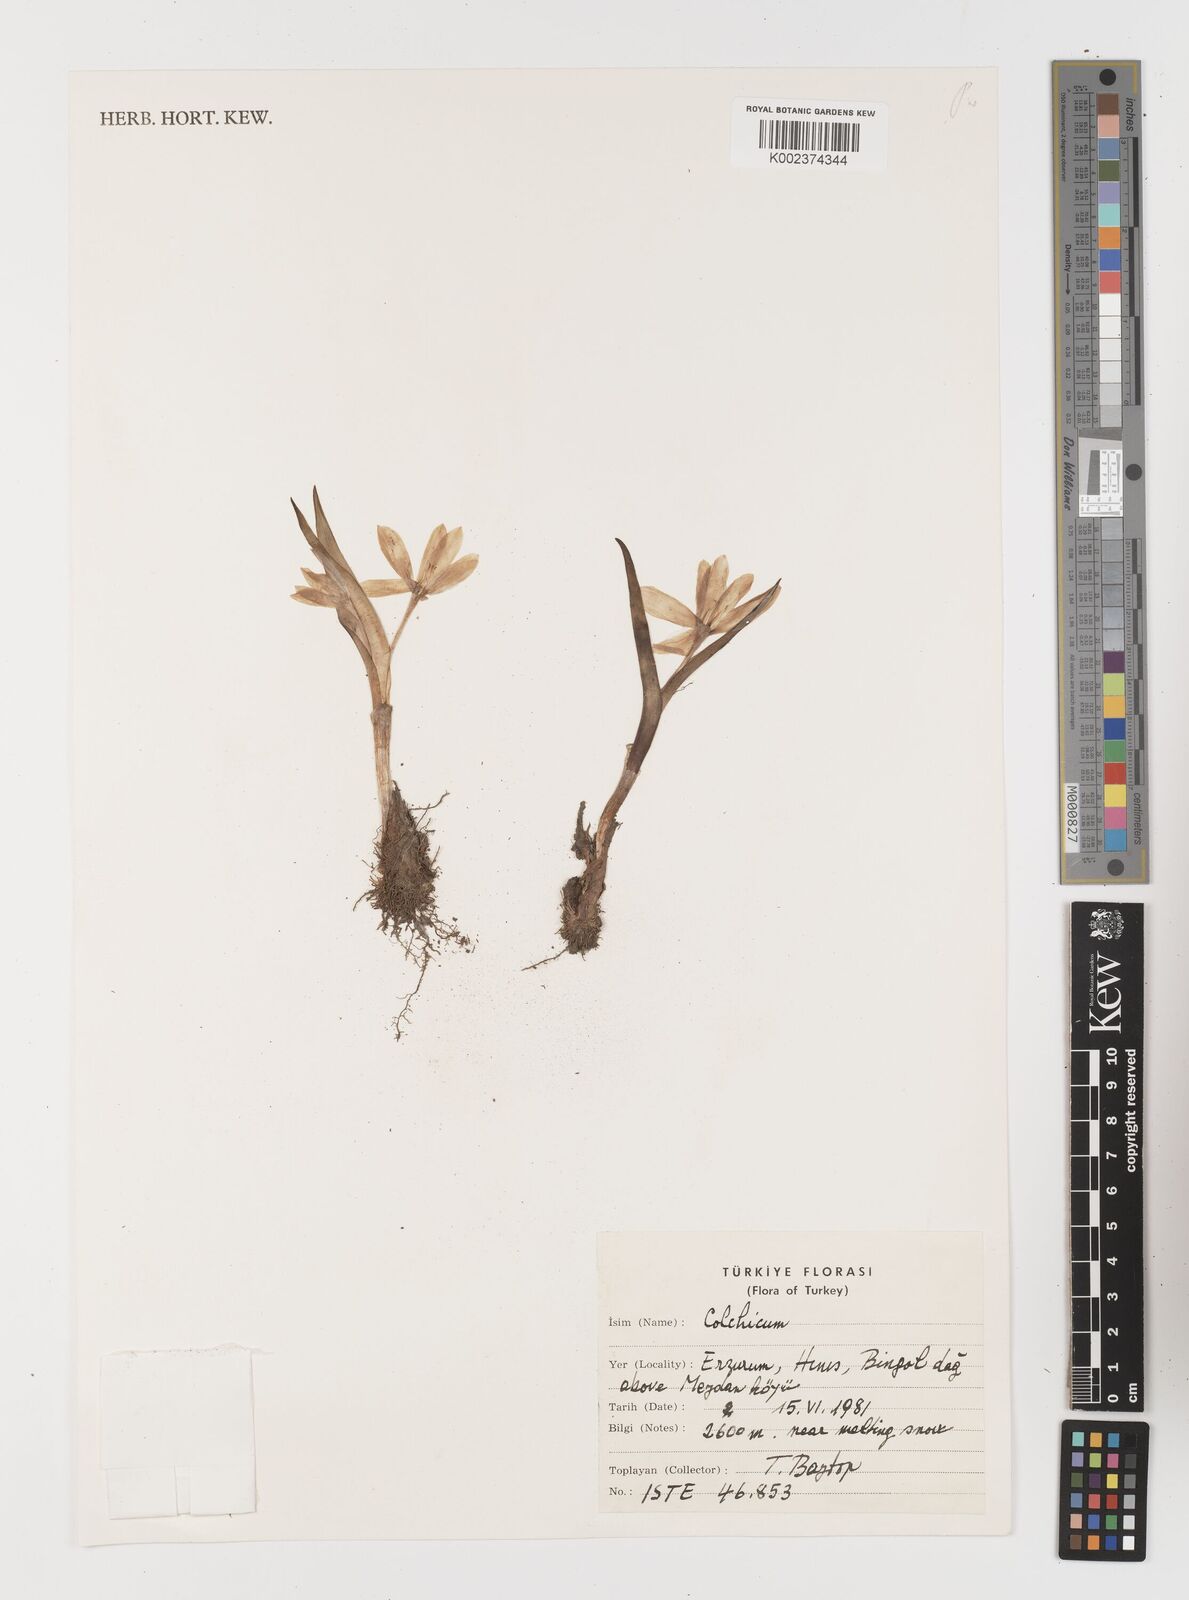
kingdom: Plantae
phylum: Tracheophyta
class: Liliopsida
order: Liliales
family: Colchicaceae
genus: Colchicum
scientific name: Colchicum
